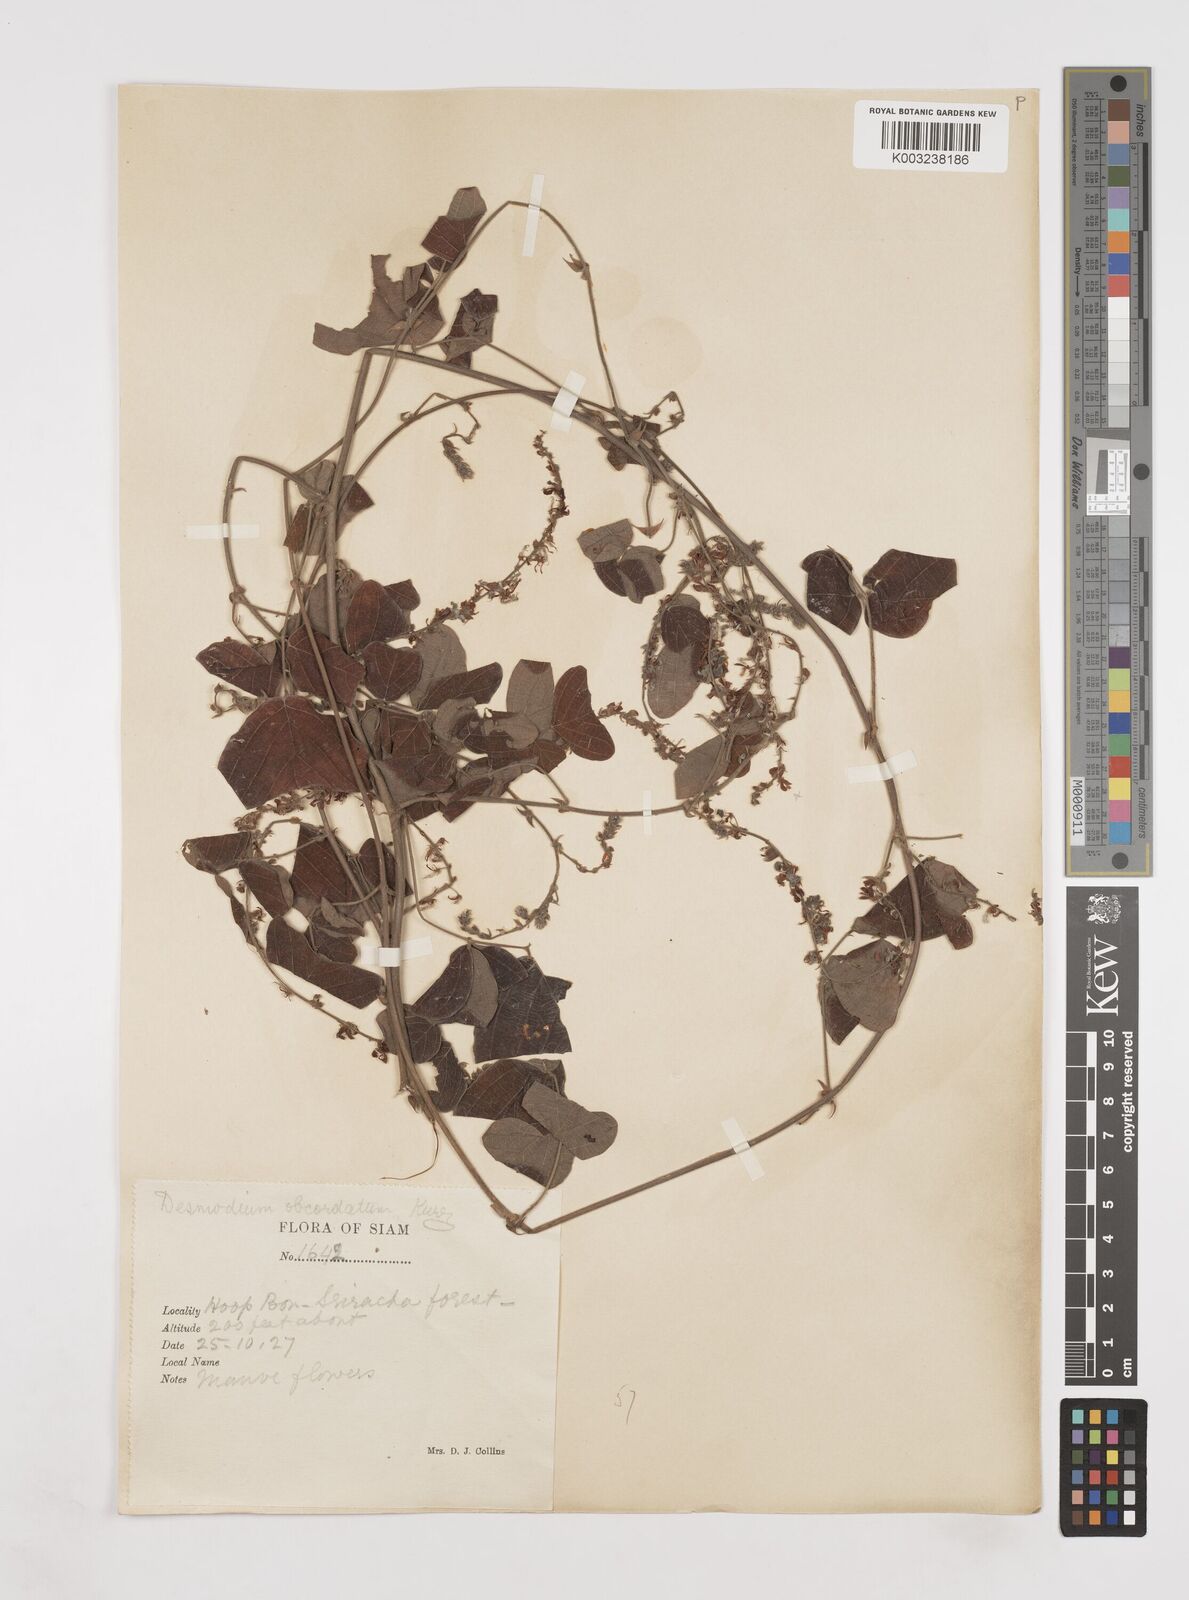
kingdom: Plantae
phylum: Tracheophyta
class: Magnoliopsida
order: Fabales
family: Fabaceae
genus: Hegnera
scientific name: Hegnera obcordata
